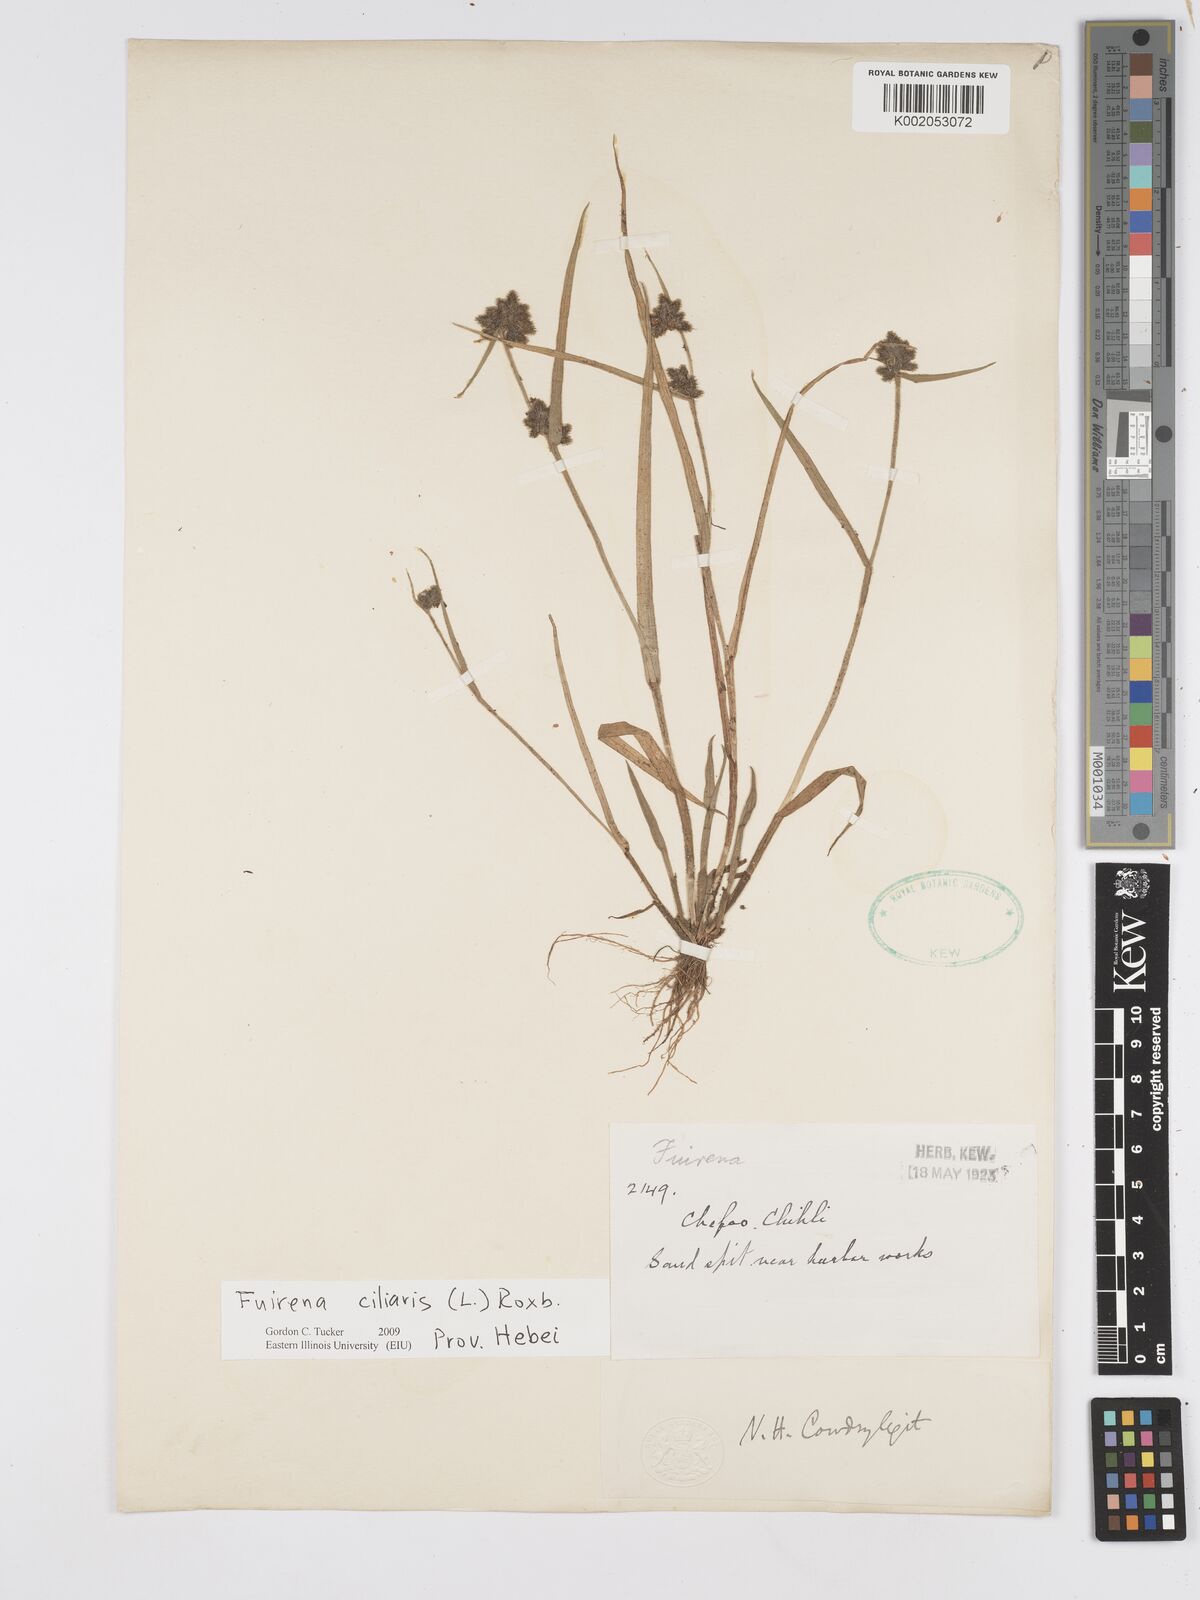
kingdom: Plantae
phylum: Tracheophyta
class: Liliopsida
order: Poales
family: Cyperaceae
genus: Fuirena
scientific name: Fuirena ciliaris
